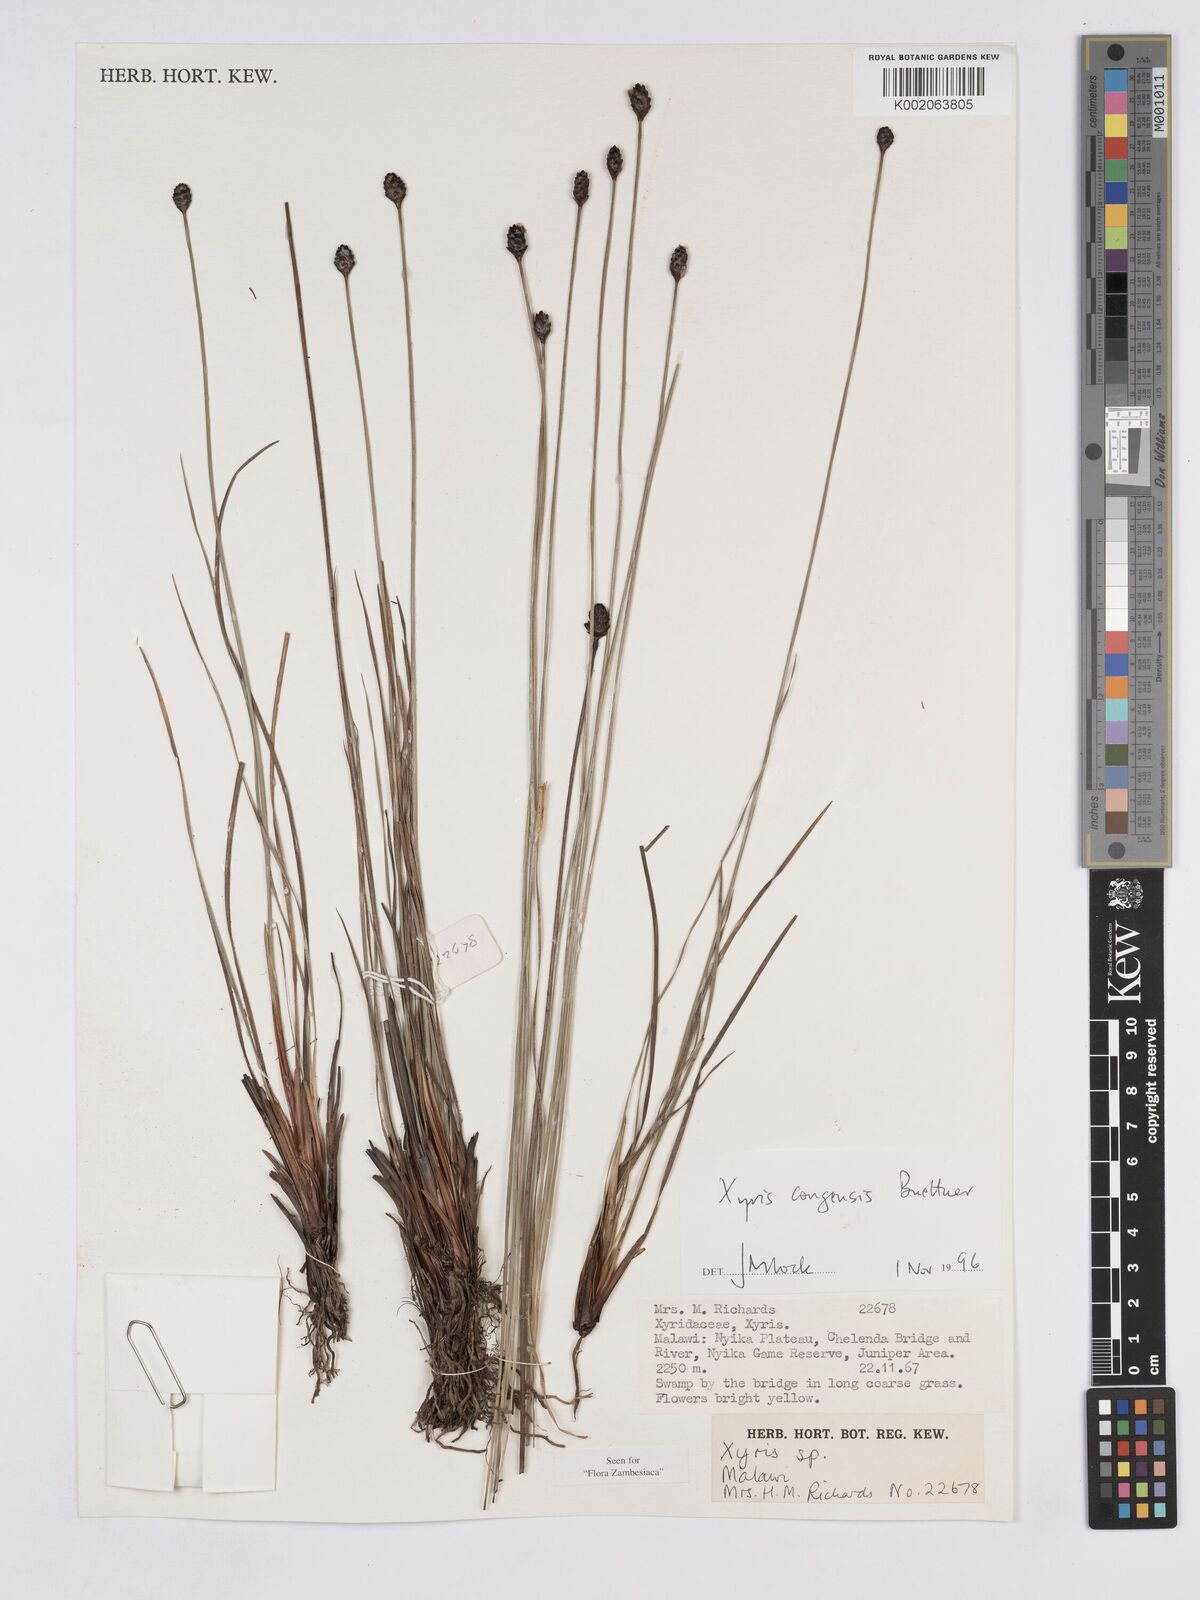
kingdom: Plantae
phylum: Tracheophyta
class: Liliopsida
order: Poales
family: Xyridaceae
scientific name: Xyridaceae
